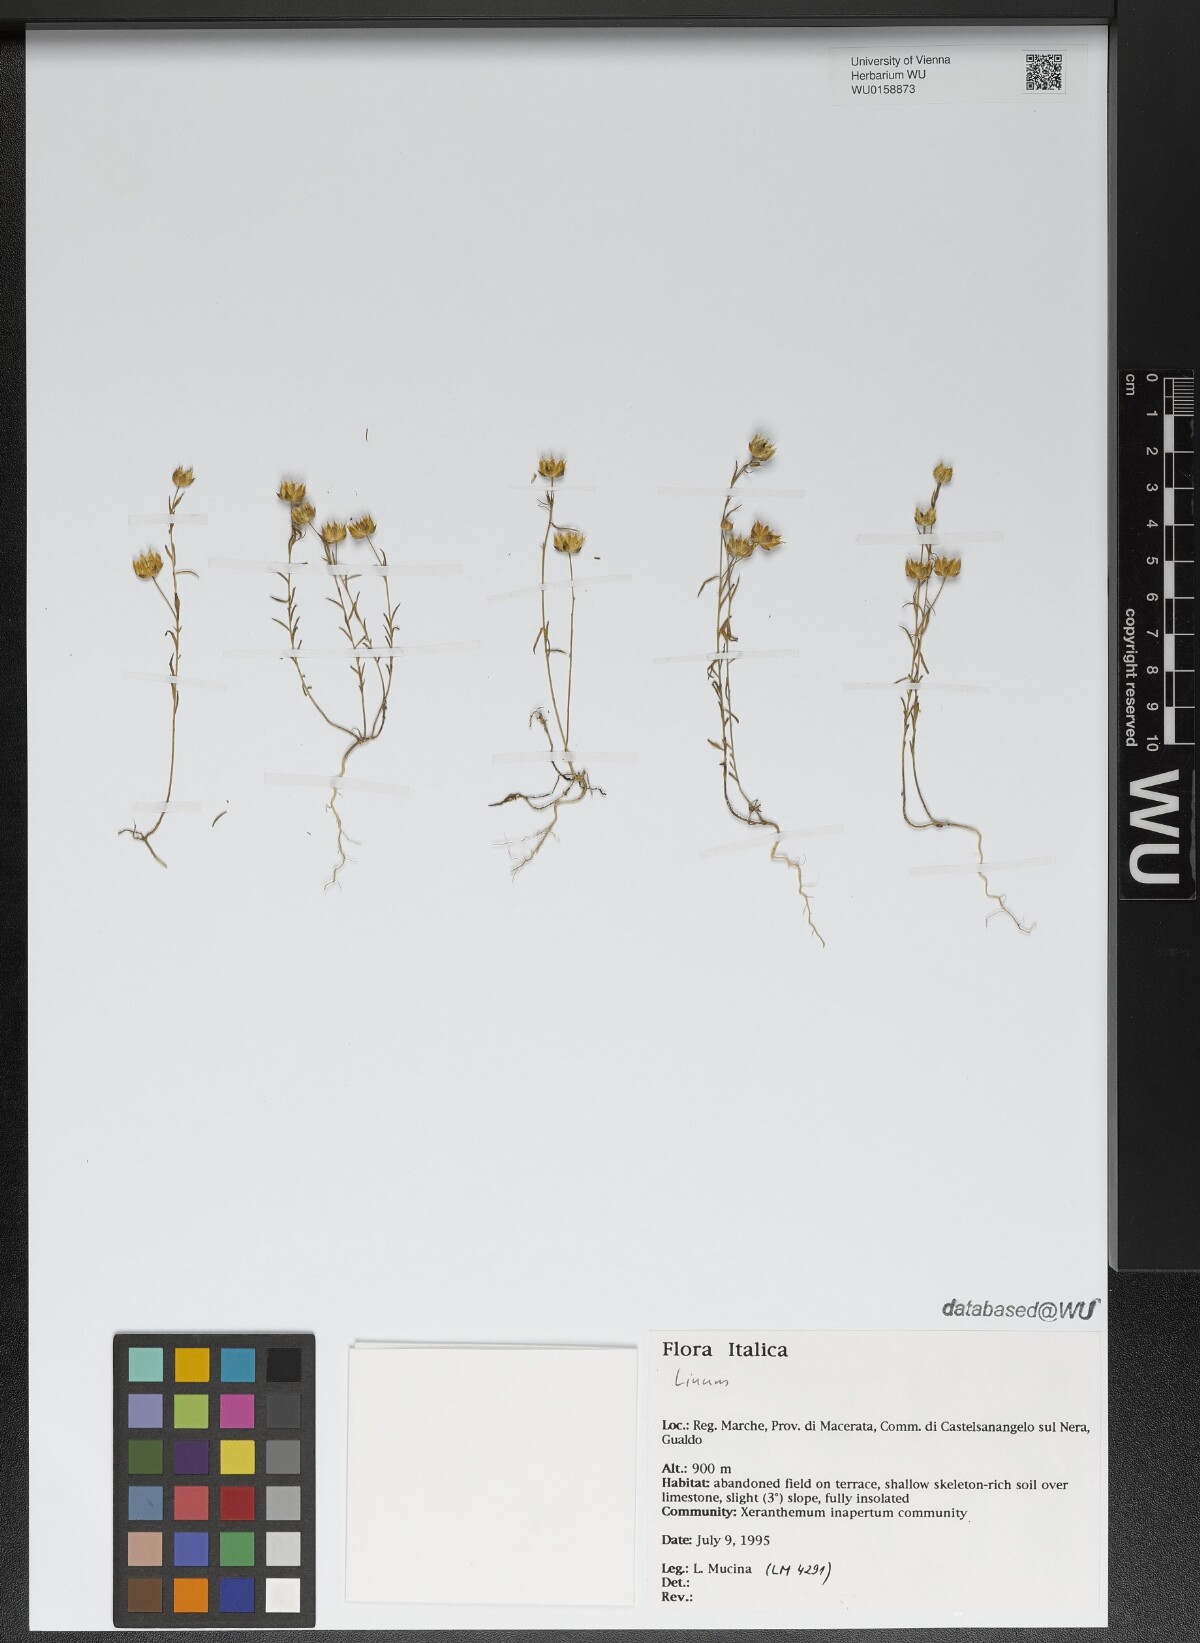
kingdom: Plantae
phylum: Tracheophyta
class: Magnoliopsida
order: Malpighiales
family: Linaceae
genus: Linum
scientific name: Linum
